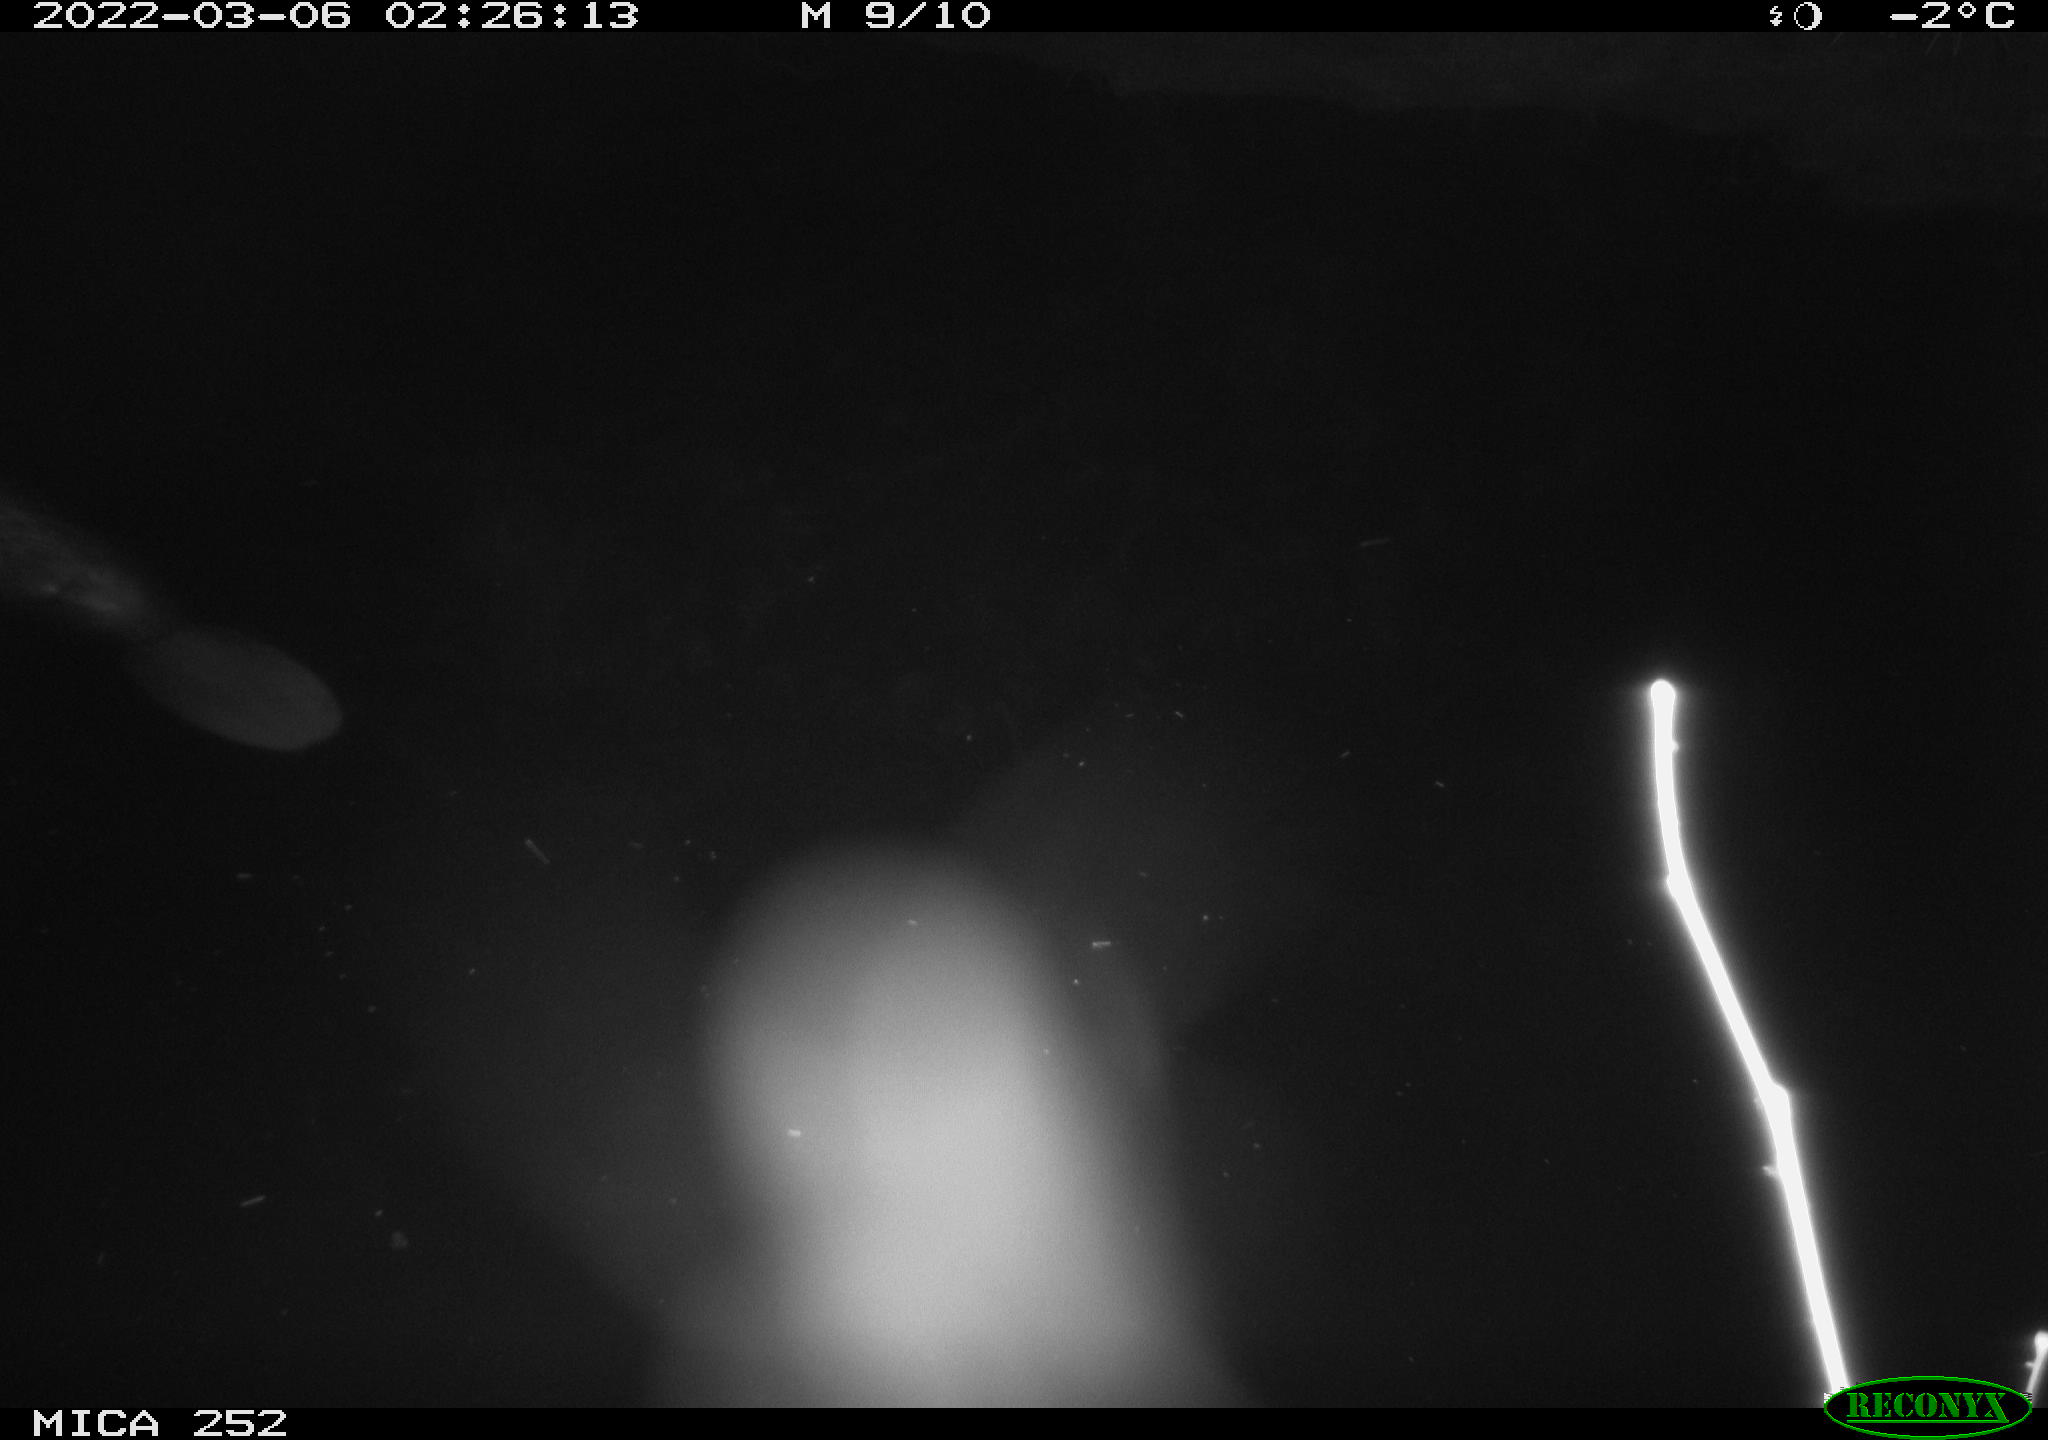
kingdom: Animalia
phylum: Chordata
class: Mammalia
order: Rodentia
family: Castoridae
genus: Castor
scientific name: Castor fiber
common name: Eurasian beaver
